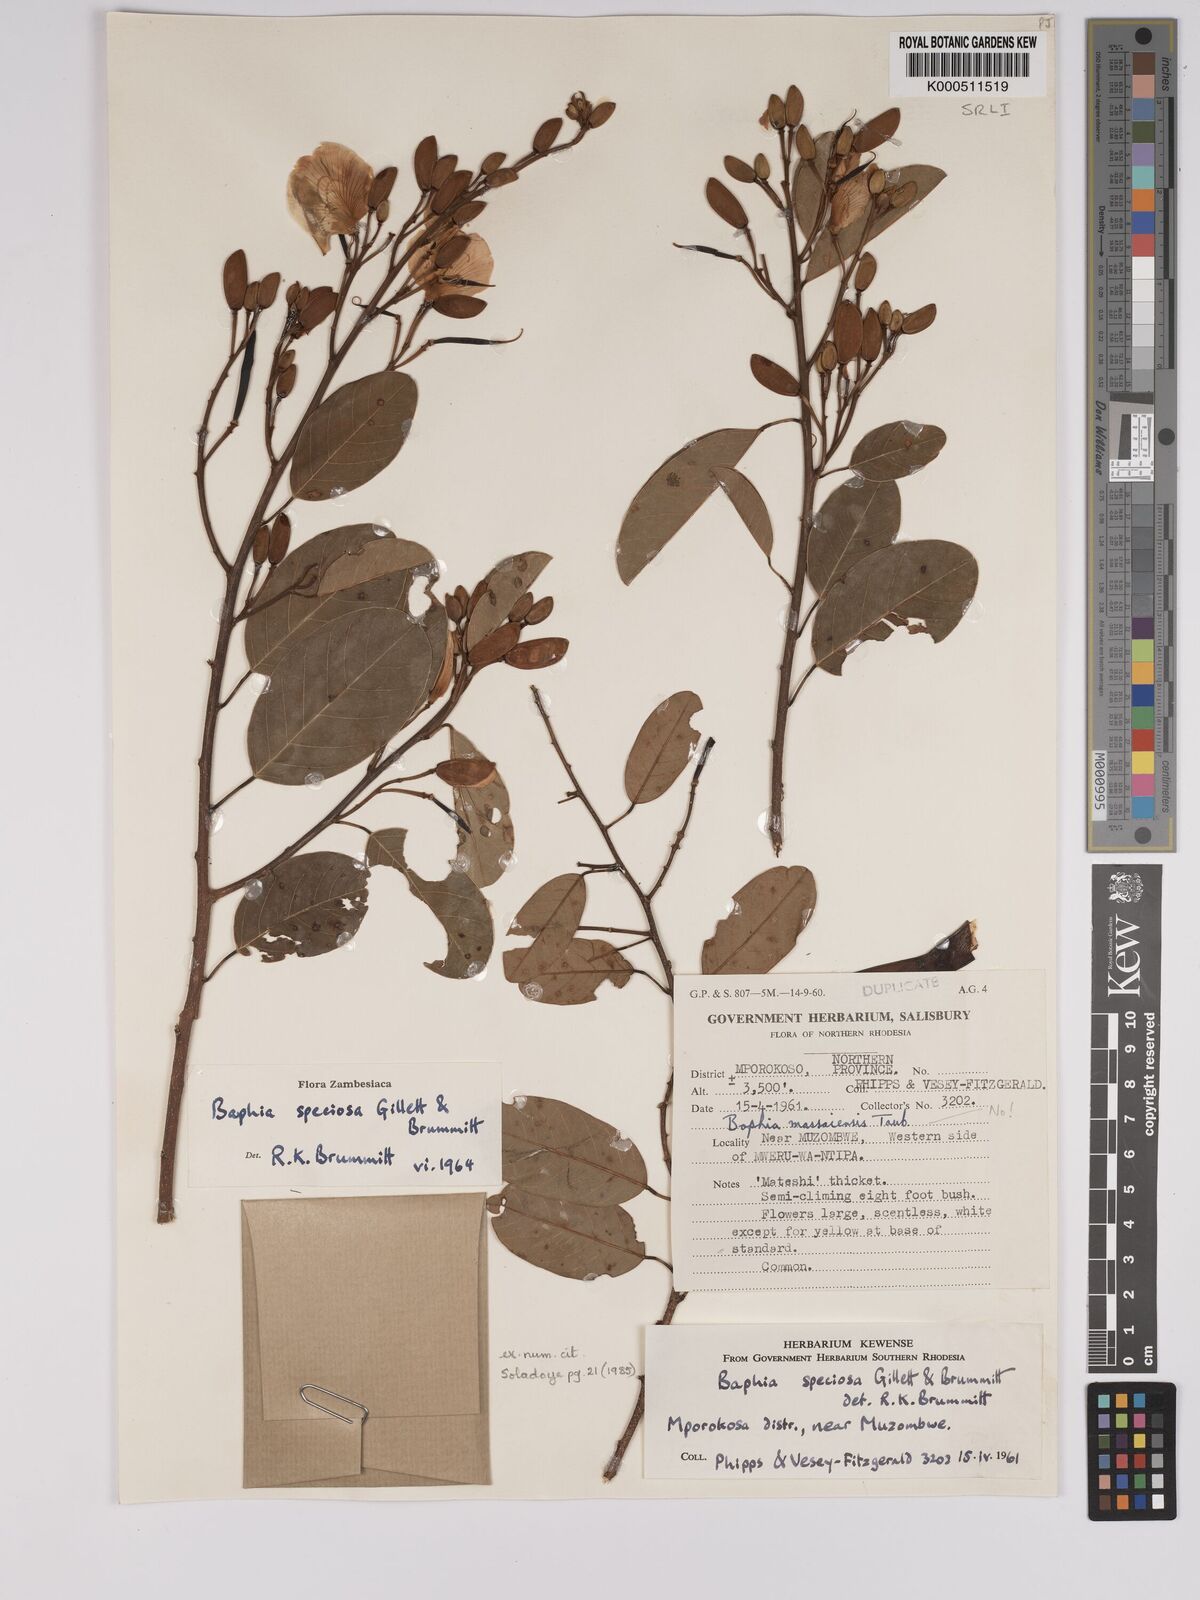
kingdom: Plantae
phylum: Tracheophyta
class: Magnoliopsida
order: Fabales
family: Fabaceae
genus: Baphia
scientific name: Baphia speciosa
